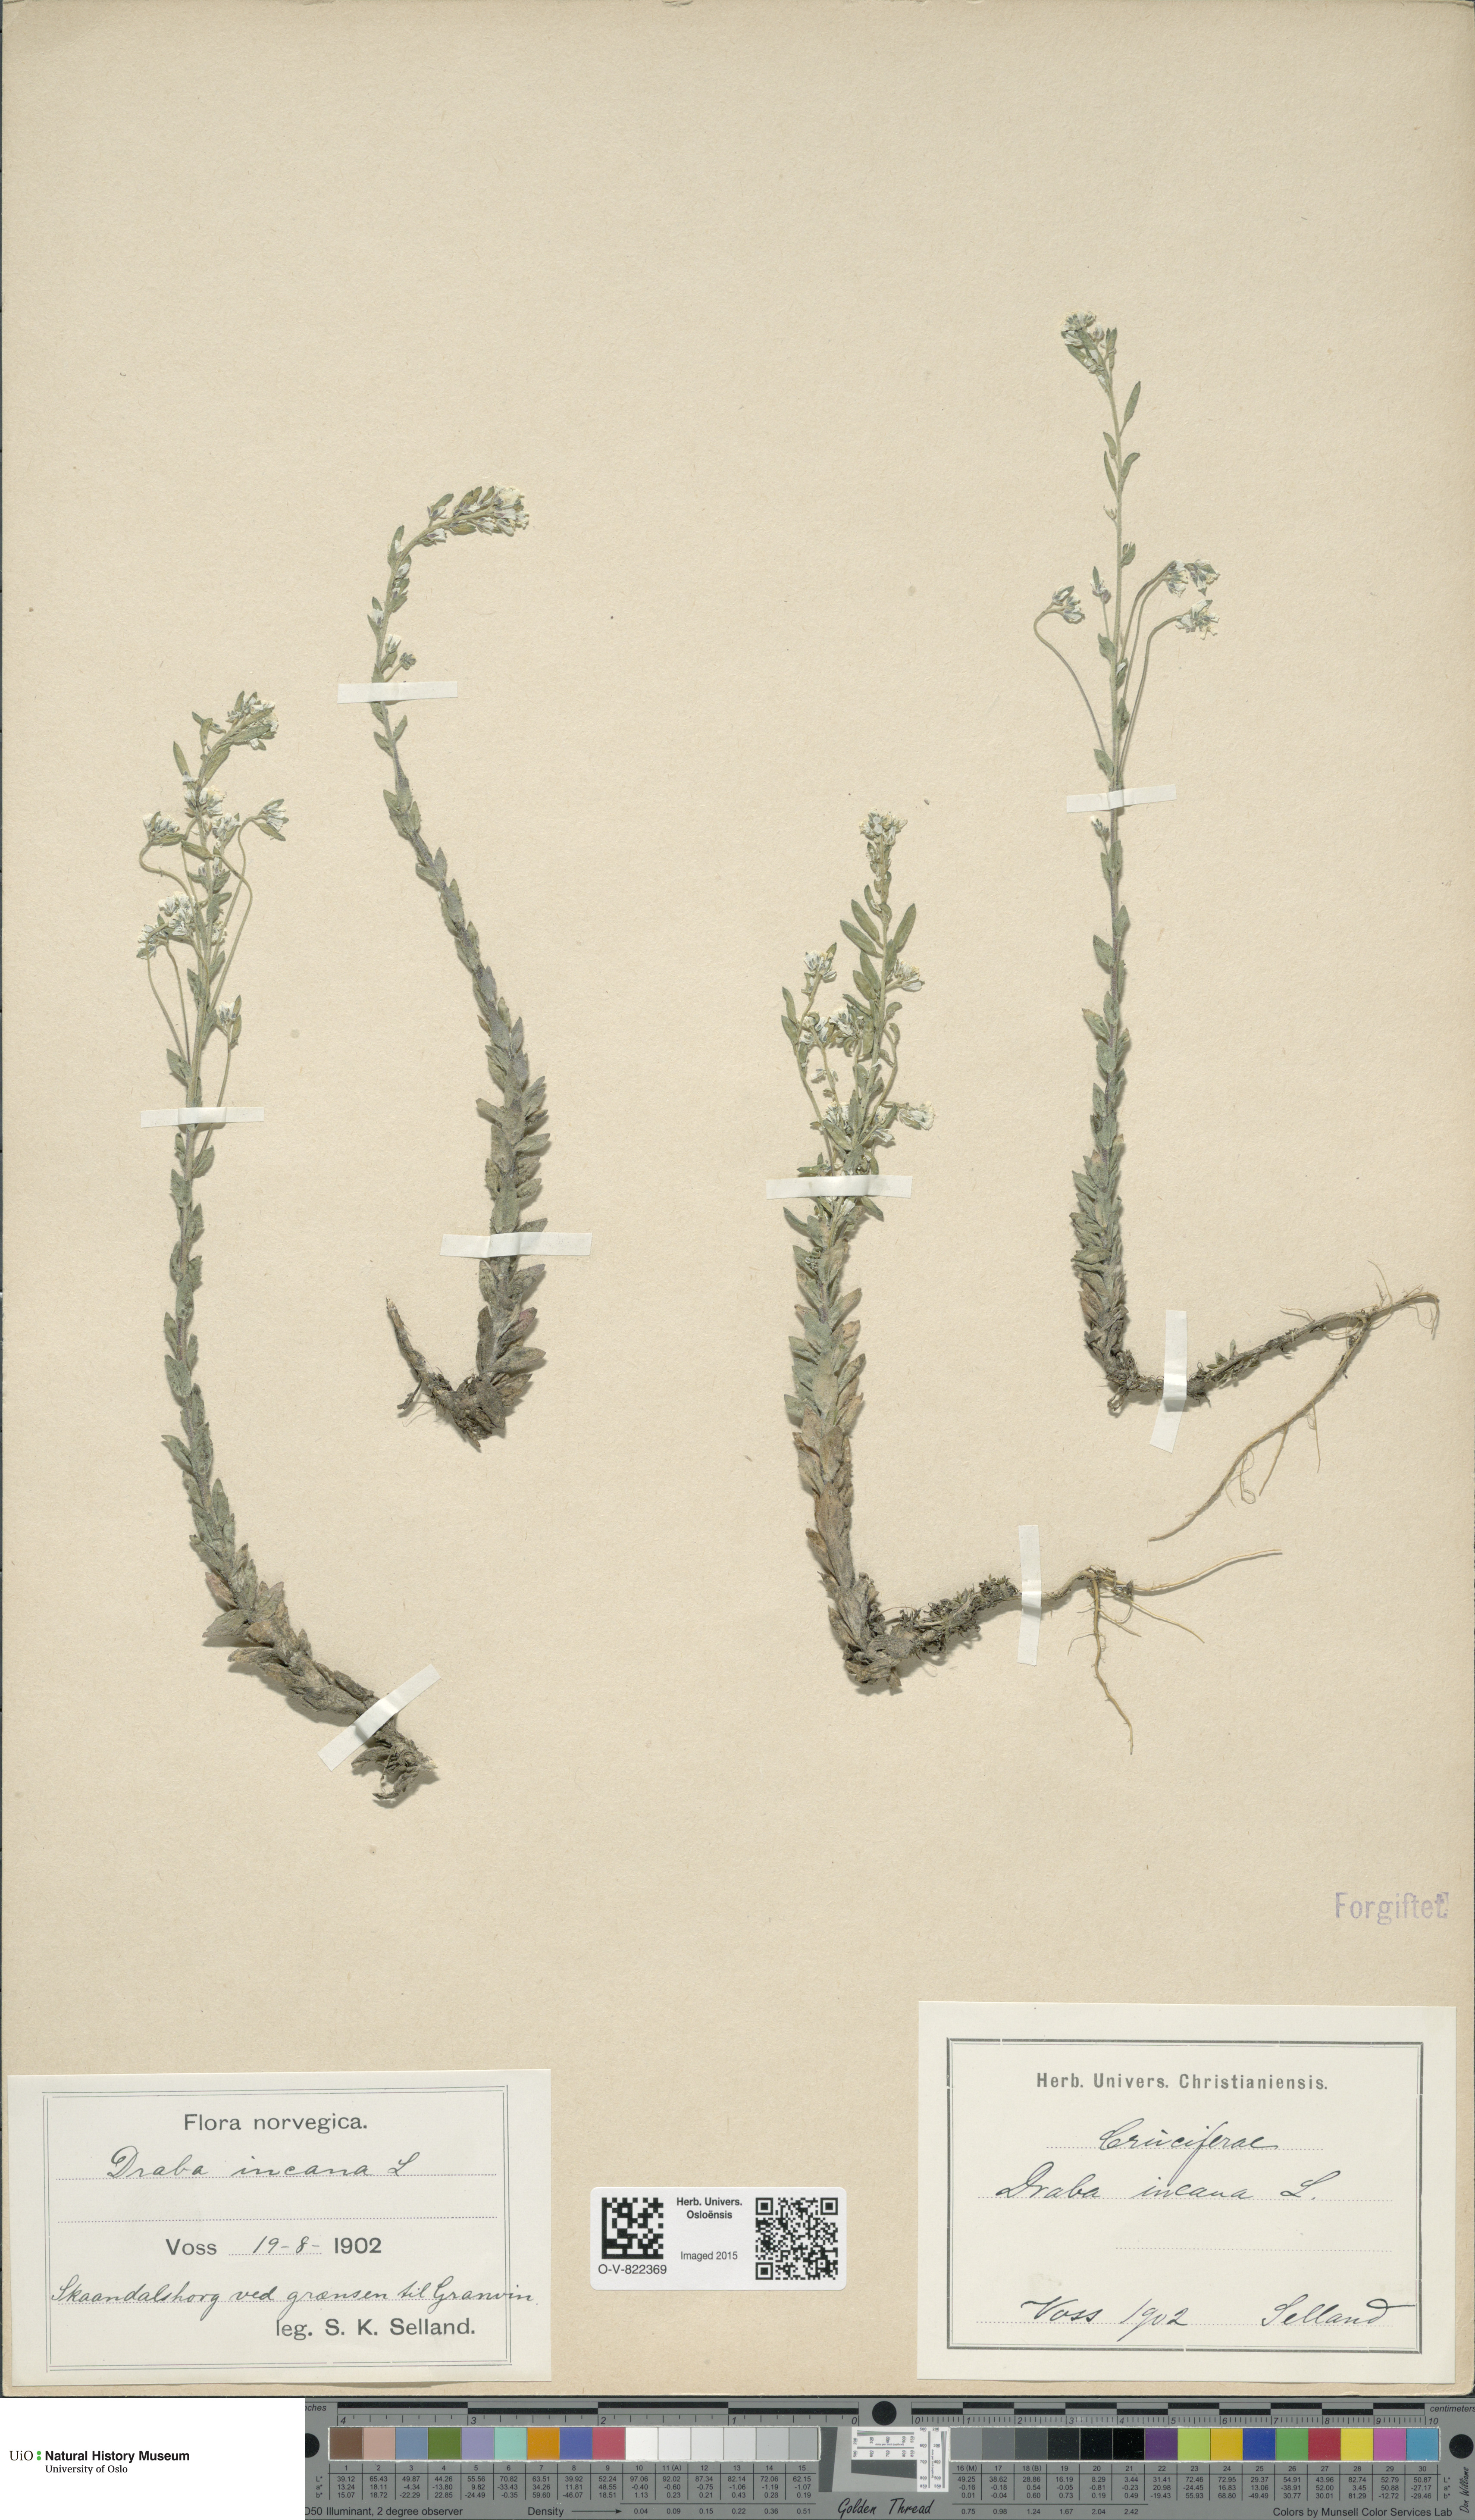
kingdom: Plantae
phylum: Tracheophyta
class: Magnoliopsida
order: Brassicales
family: Brassicaceae
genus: Draba
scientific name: Draba incana
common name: Hoary whitlow-grass
